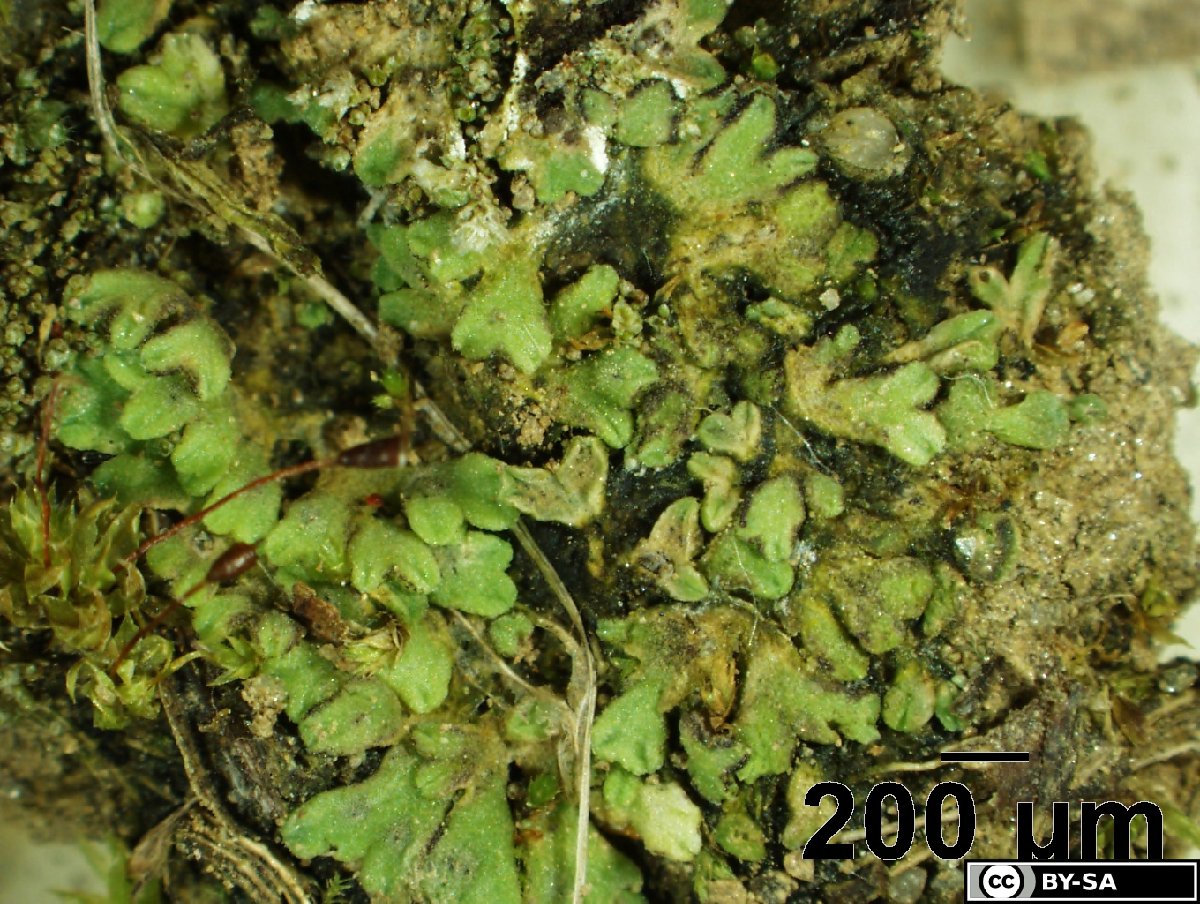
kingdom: Plantae
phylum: Marchantiophyta
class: Marchantiopsida
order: Marchantiales
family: Ricciaceae
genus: Riccia
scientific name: Riccia ligula
